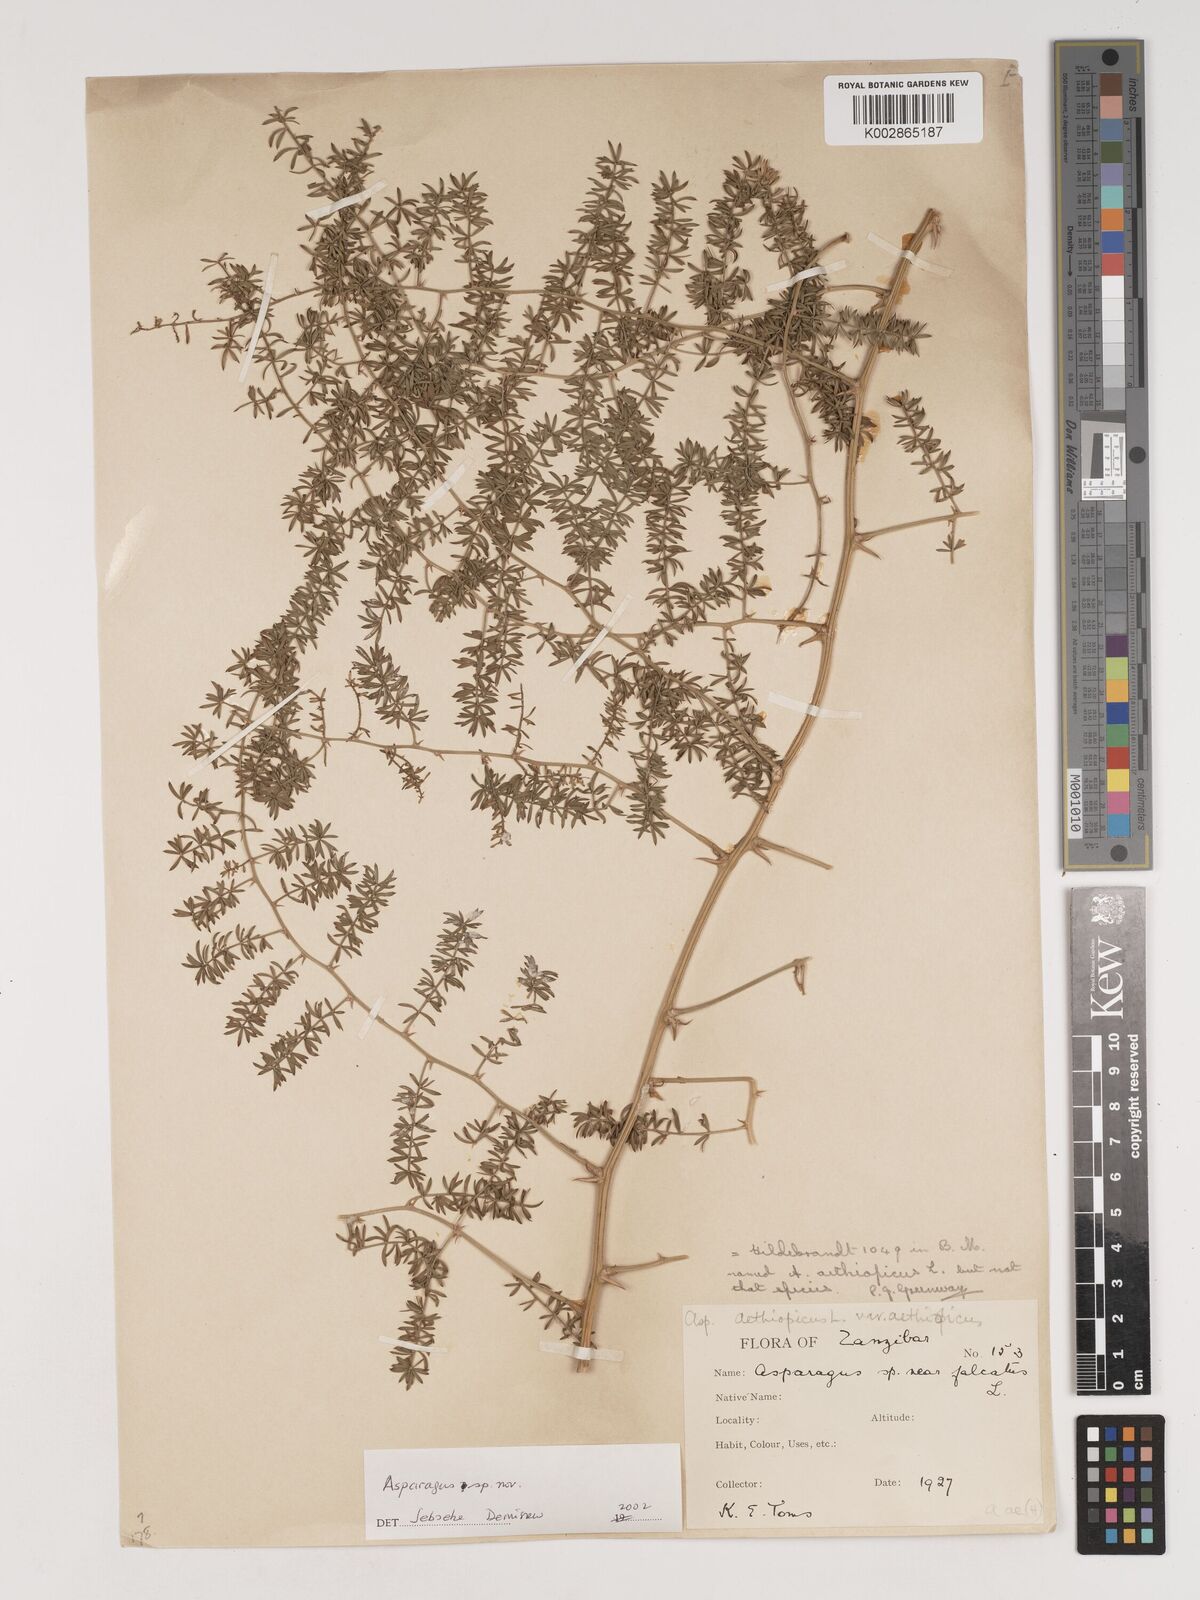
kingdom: Plantae
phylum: Tracheophyta
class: Liliopsida
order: Asparagales
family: Asparagaceae
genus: Asparagus
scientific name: Asparagus faulkneri
